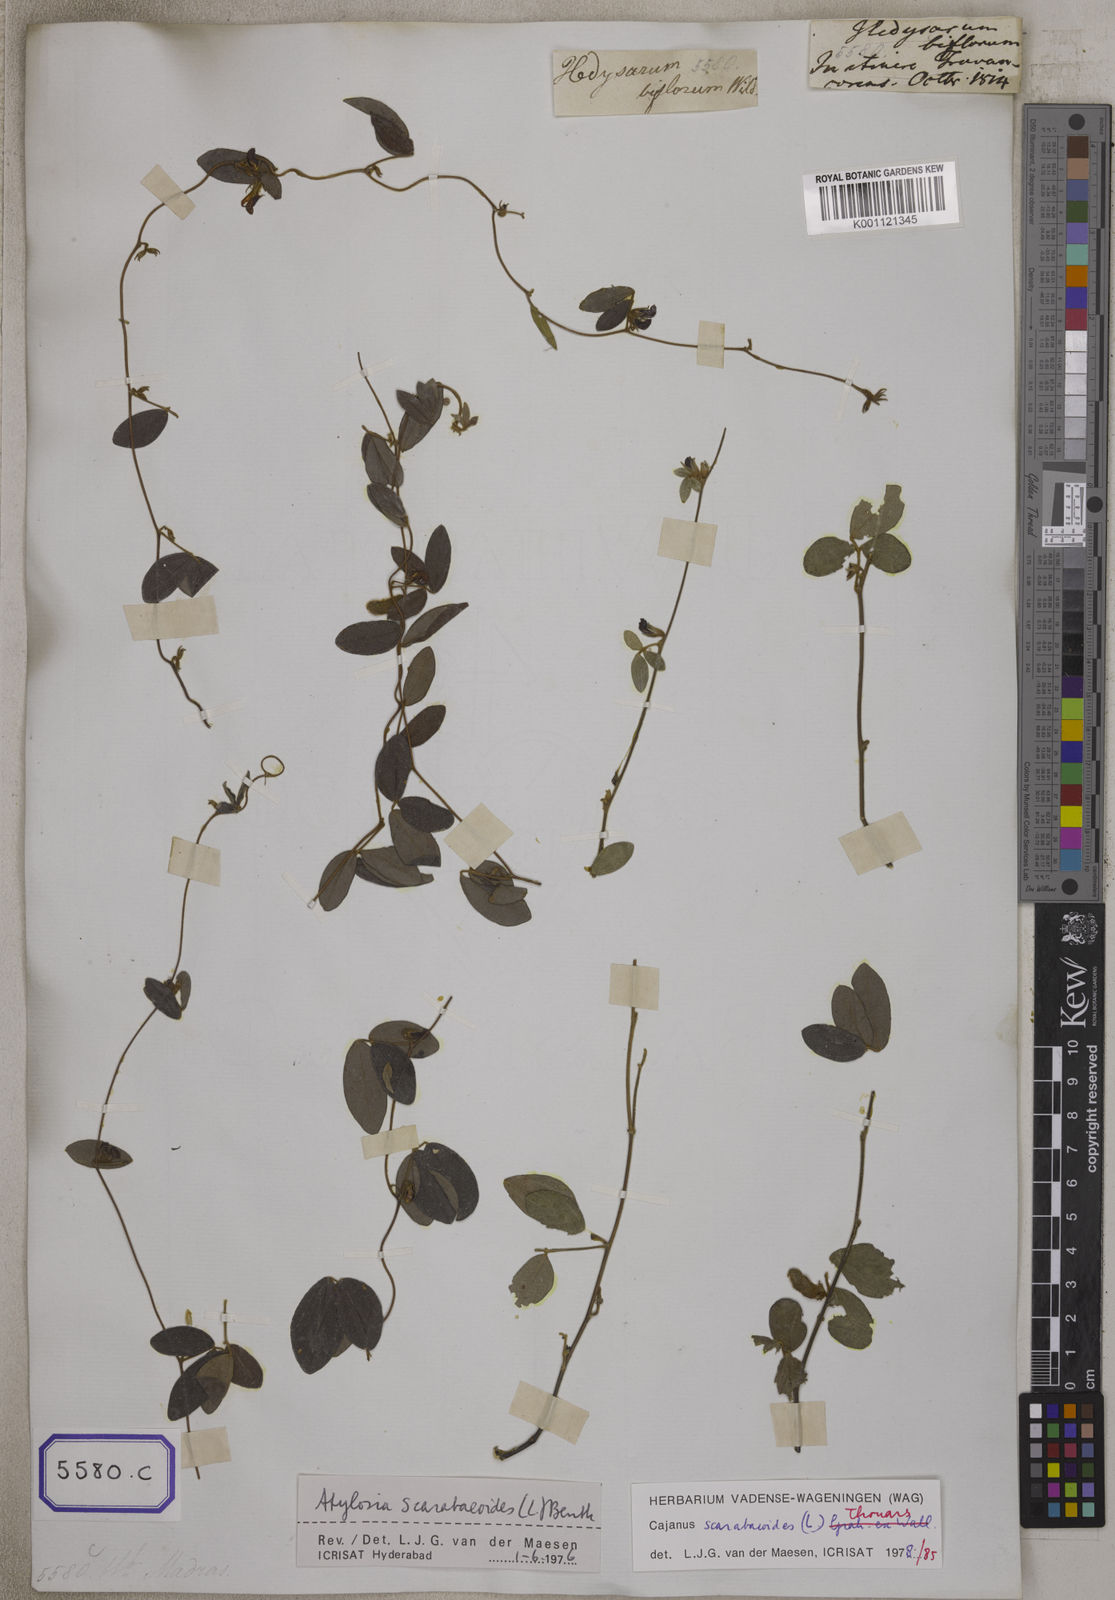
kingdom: Plantae
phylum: Tracheophyta
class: Magnoliopsida
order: Fabales
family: Fabaceae
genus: Cajanus
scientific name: Cajanus scarabaeoides
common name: Showy pigeonpea
